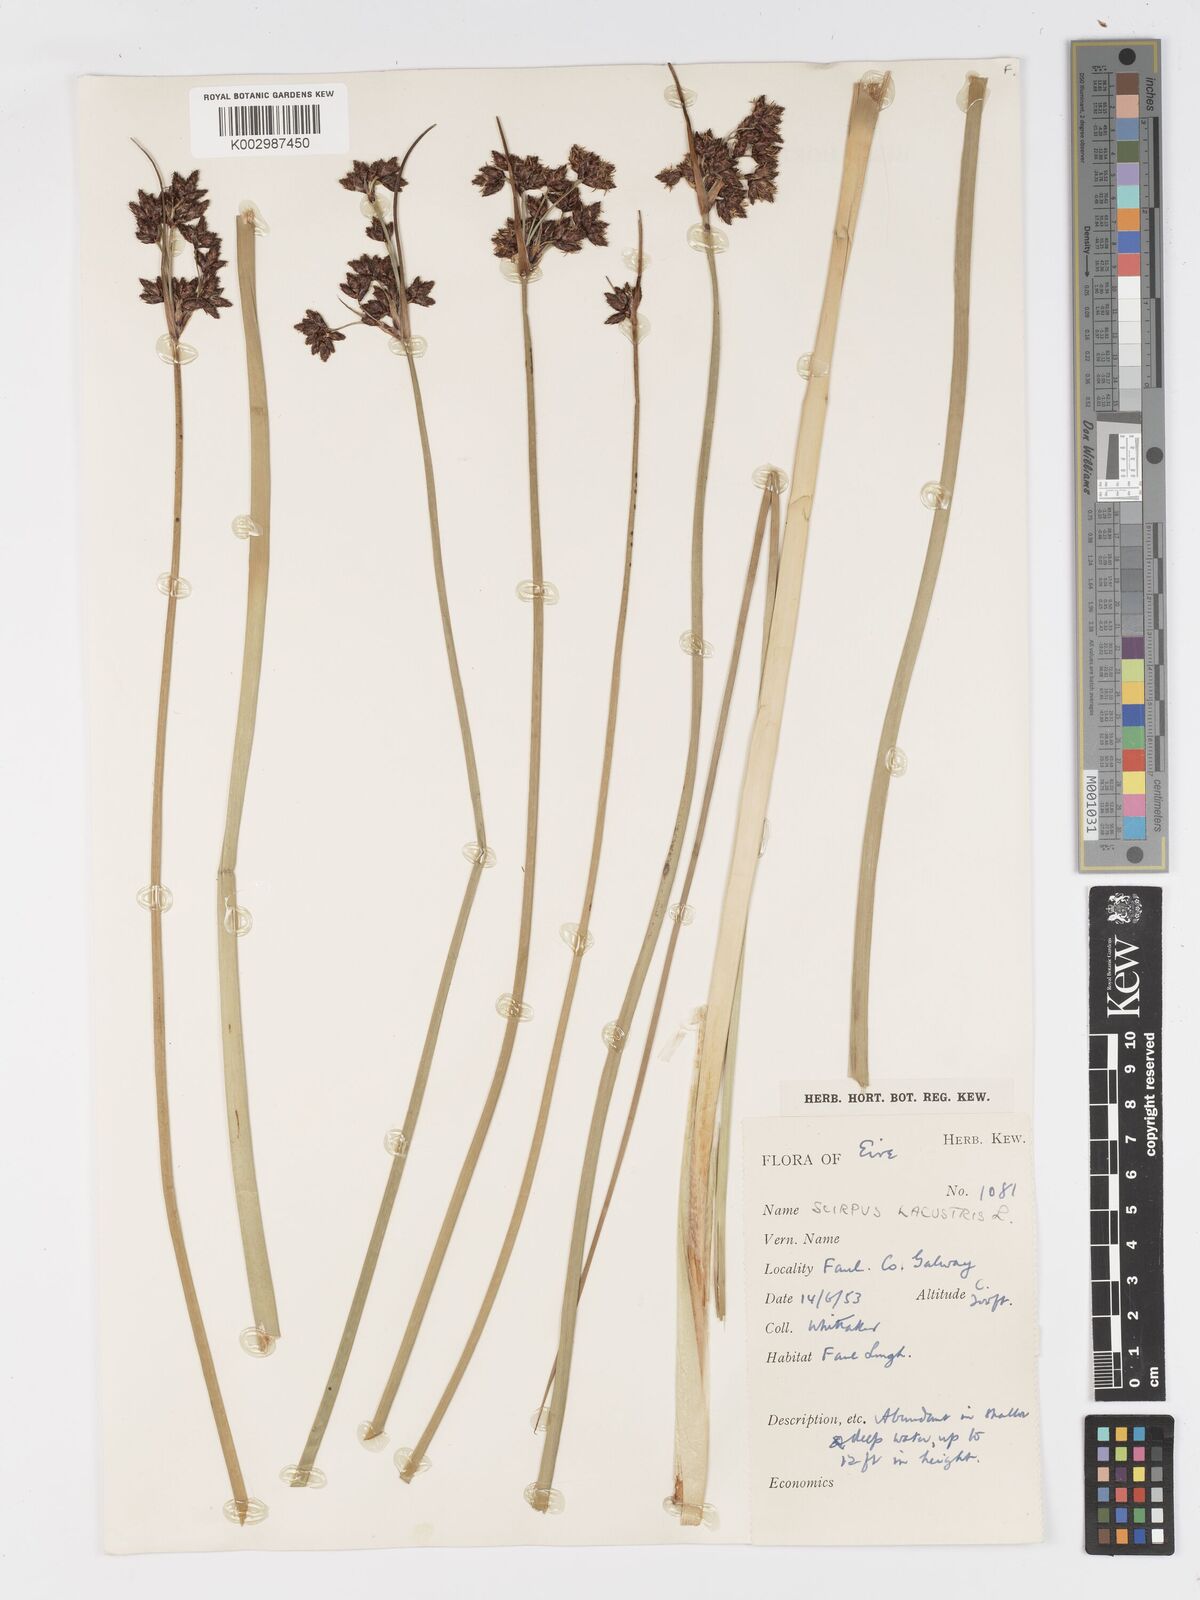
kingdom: Plantae
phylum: Tracheophyta
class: Liliopsida
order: Poales
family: Cyperaceae
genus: Schoenoplectus
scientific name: Schoenoplectus lacustris
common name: Common club-rush
